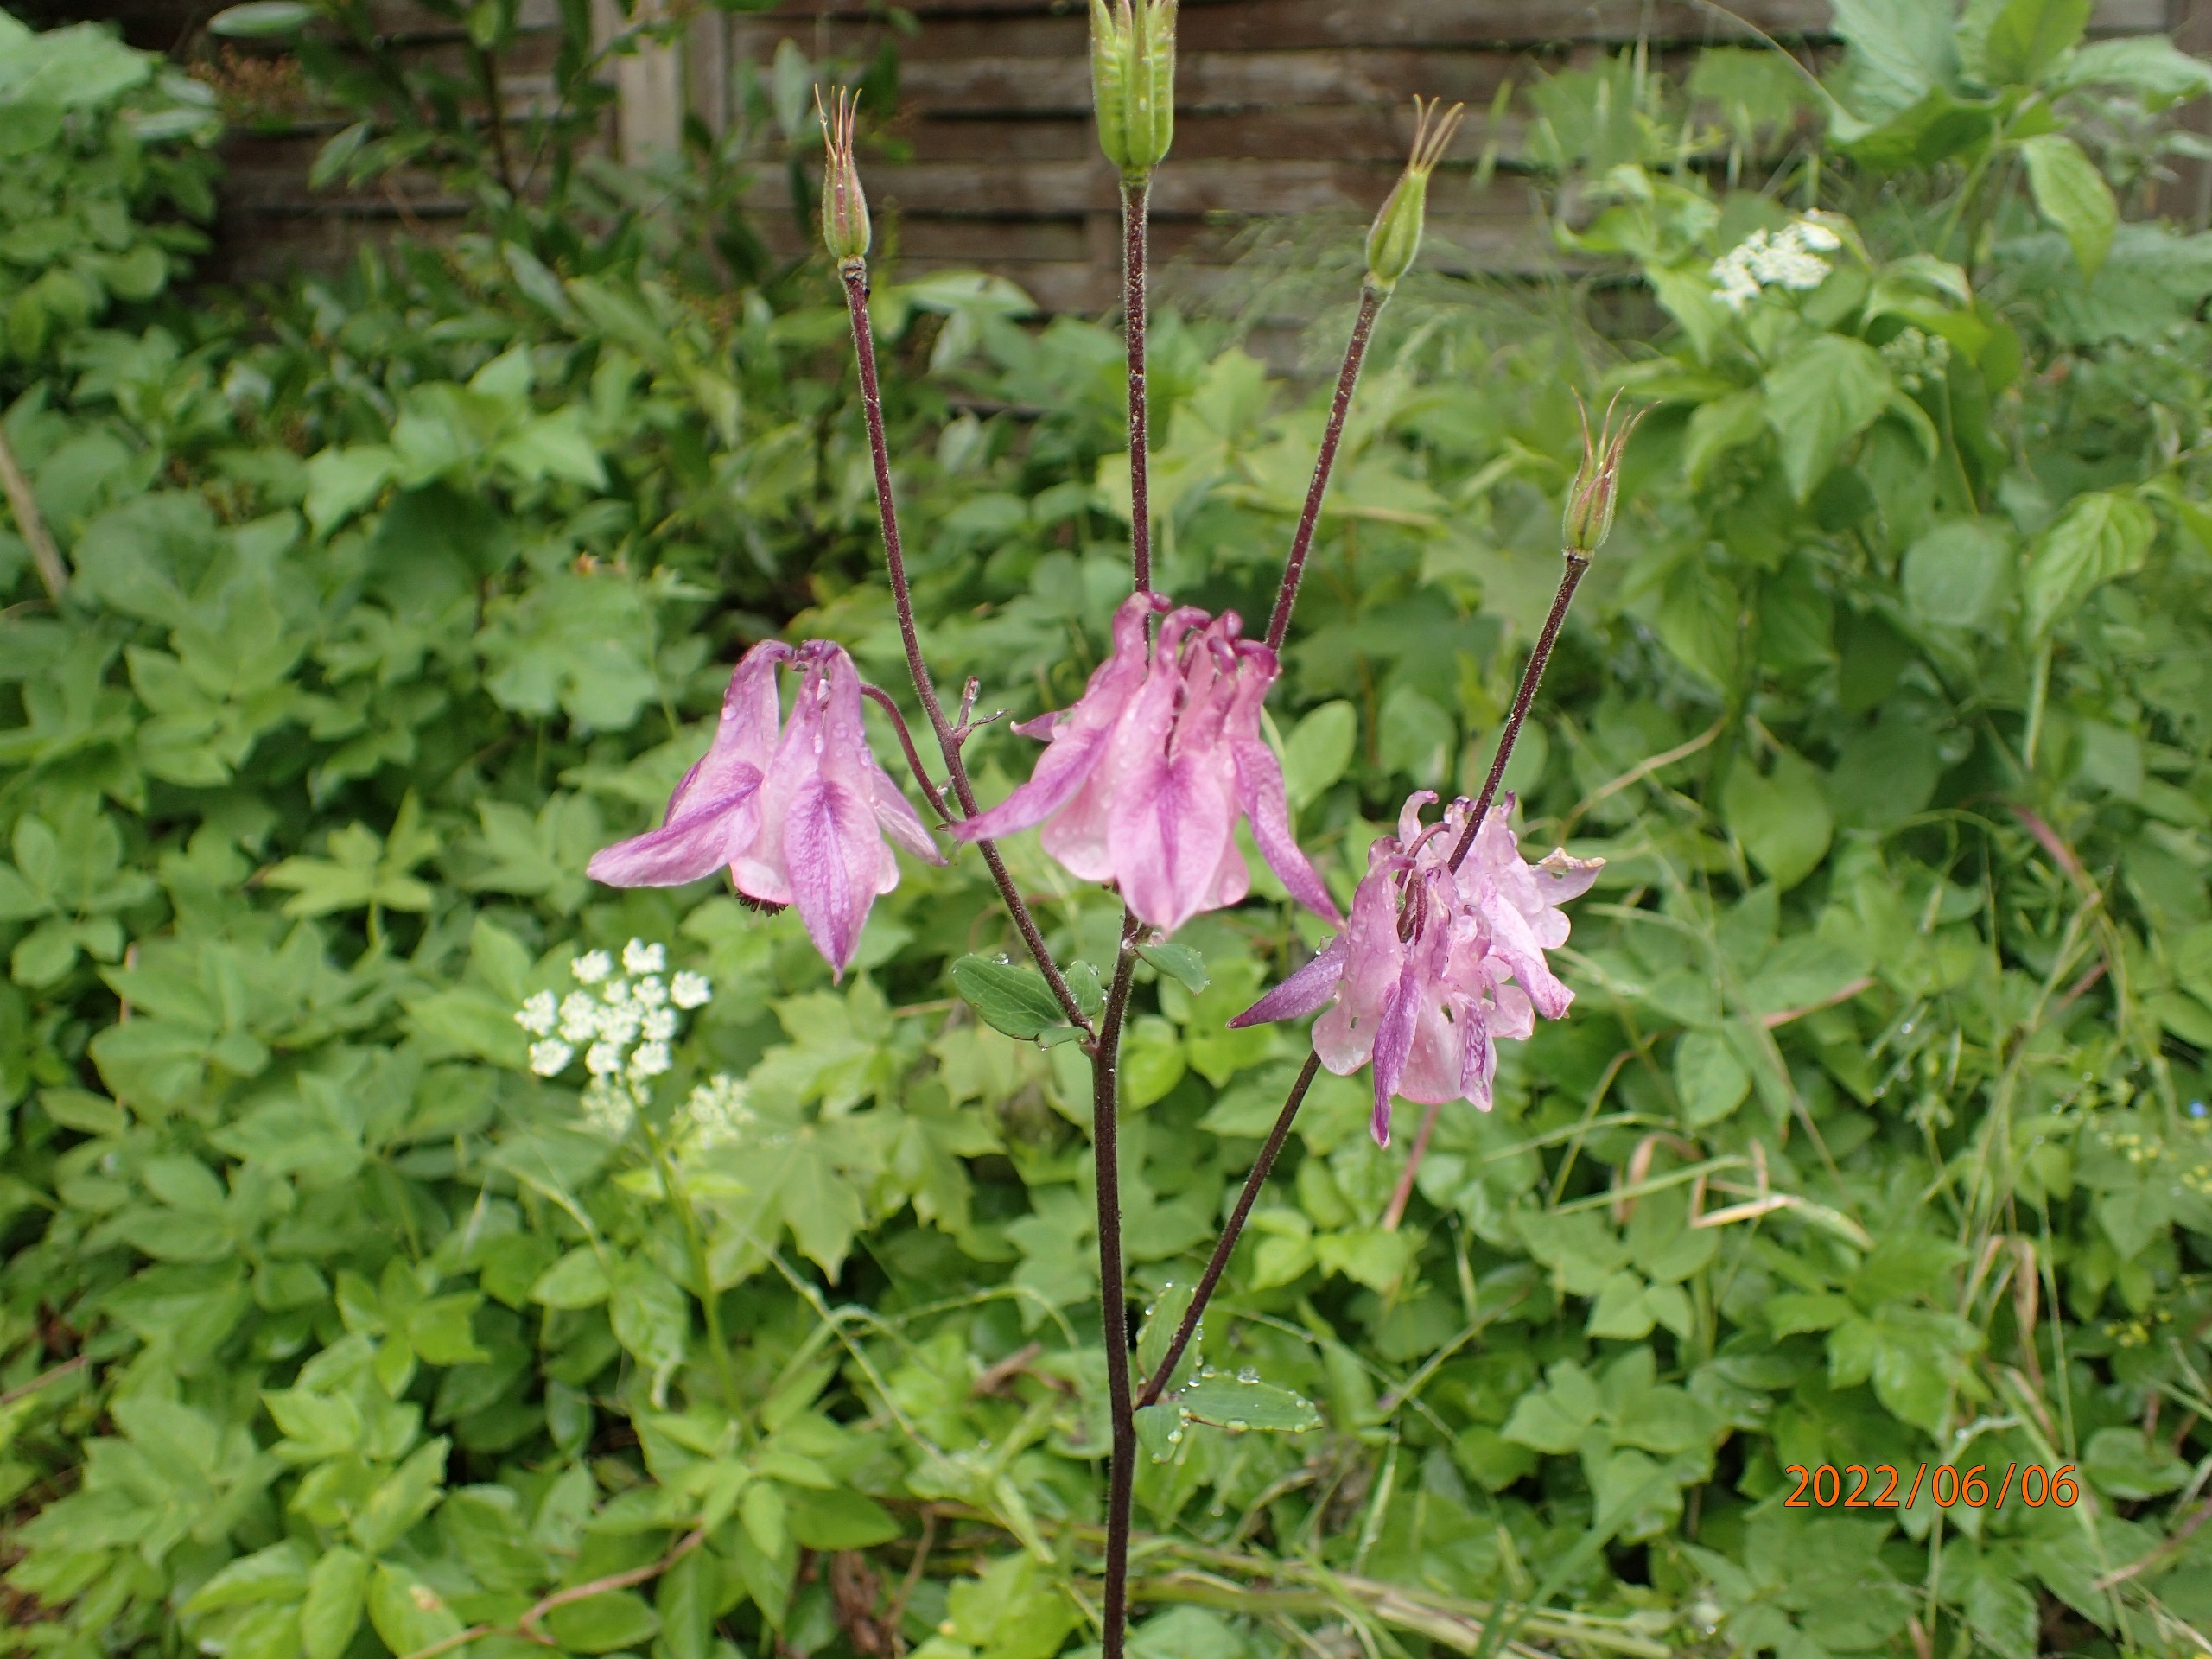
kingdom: Plantae
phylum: Tracheophyta
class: Magnoliopsida
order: Ranunculales
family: Ranunculaceae
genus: Aquilegia
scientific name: Aquilegia vulgaris
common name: Akeleje
